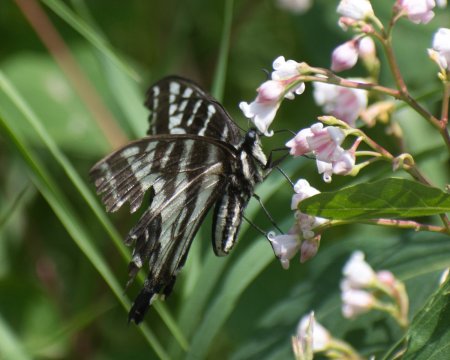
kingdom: Animalia
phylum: Arthropoda
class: Insecta
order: Lepidoptera
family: Papilionidae
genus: Pterourus
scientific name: Pterourus eurymedon
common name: Pale Swallowtail
